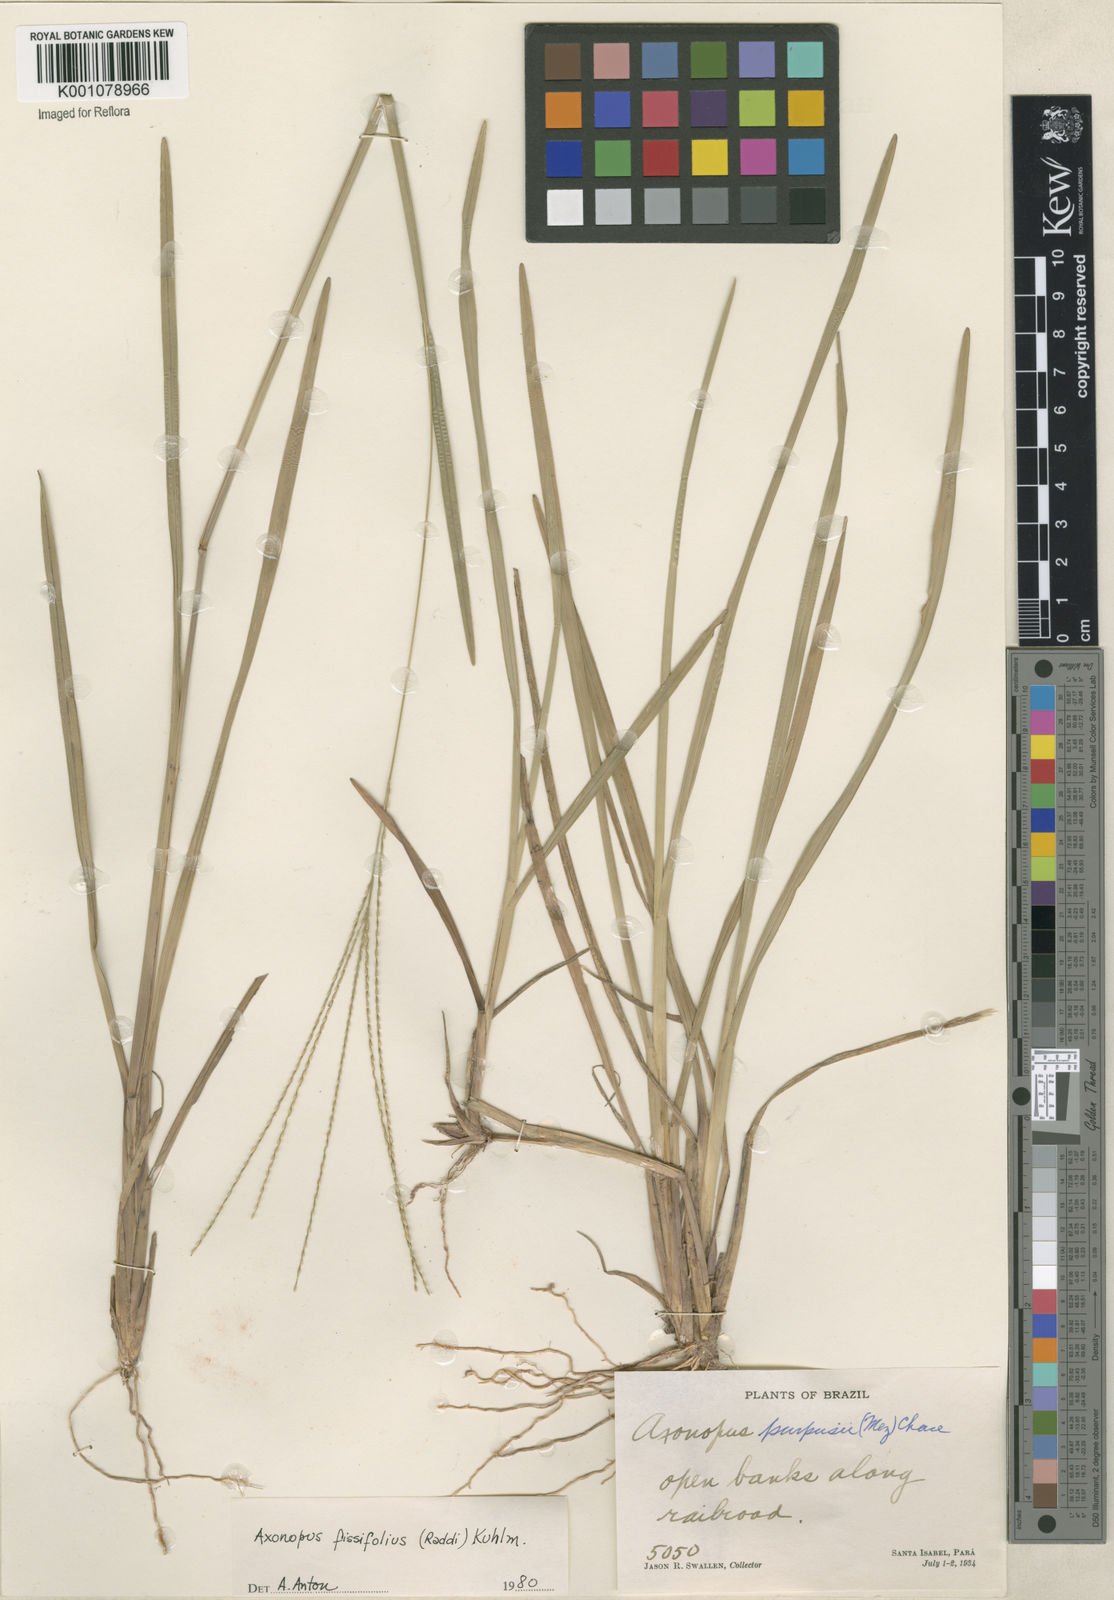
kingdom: Plantae
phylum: Tracheophyta
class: Liliopsida
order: Poales
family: Poaceae
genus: Axonopus
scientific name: Axonopus fissifolius
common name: Common carpetgrass
